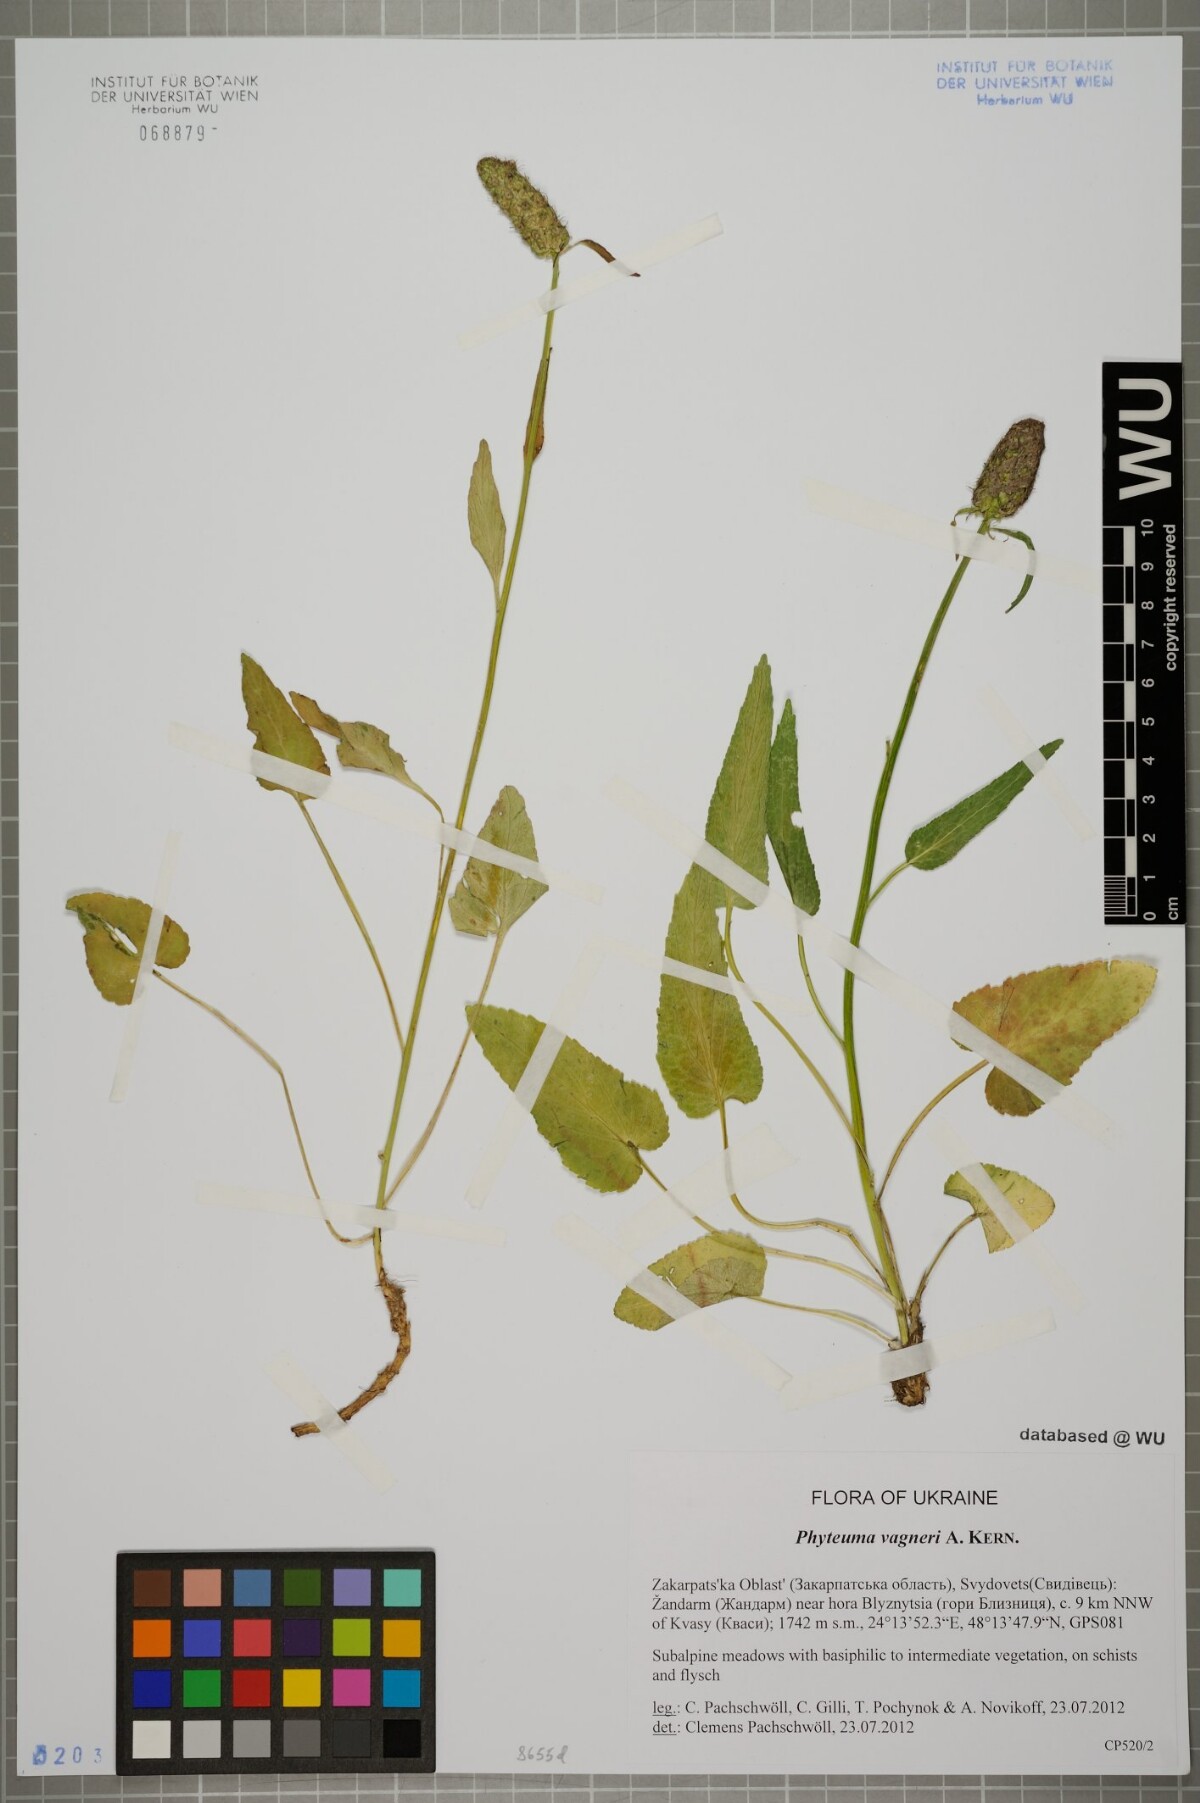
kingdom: Plantae
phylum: Tracheophyta
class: Magnoliopsida
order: Asterales
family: Campanulaceae
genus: Phyteuma
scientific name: Phyteuma vagneri
